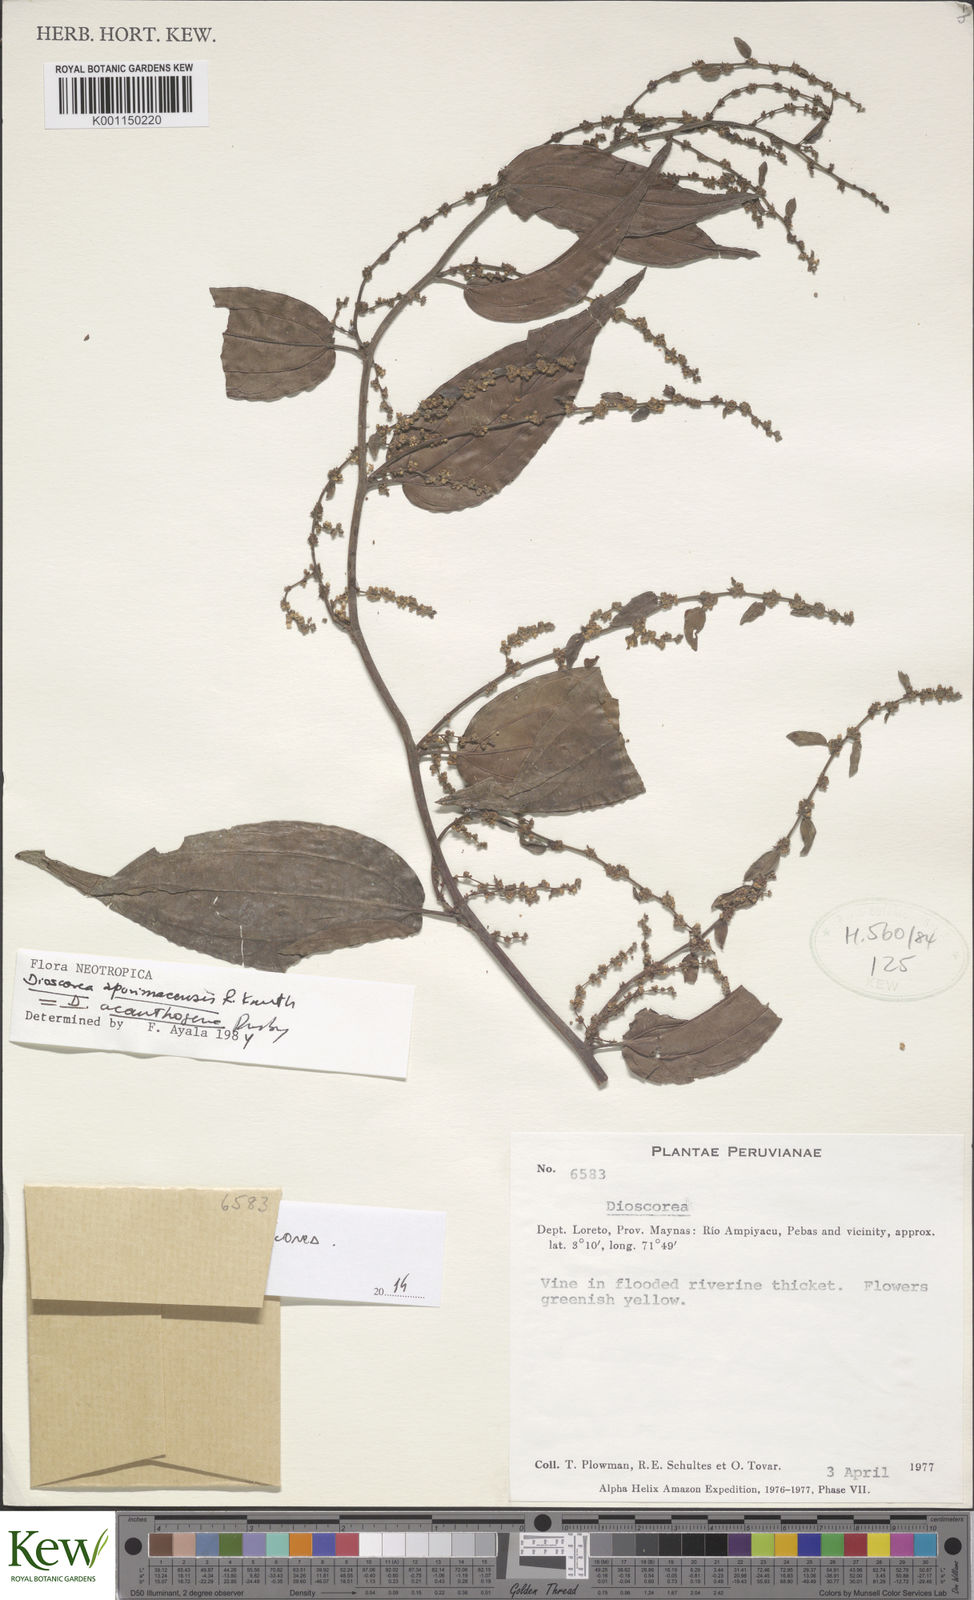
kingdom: Plantae
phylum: Tracheophyta
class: Liliopsida
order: Dioscoreales
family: Dioscoreaceae
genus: Dioscorea
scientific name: Dioscorea acanthogene
